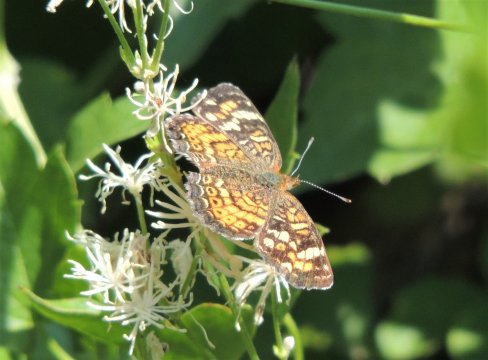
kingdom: Animalia
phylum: Arthropoda
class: Insecta
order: Lepidoptera
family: Nymphalidae
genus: Phyciodes
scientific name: Phyciodes tharos
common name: Field Crescent
